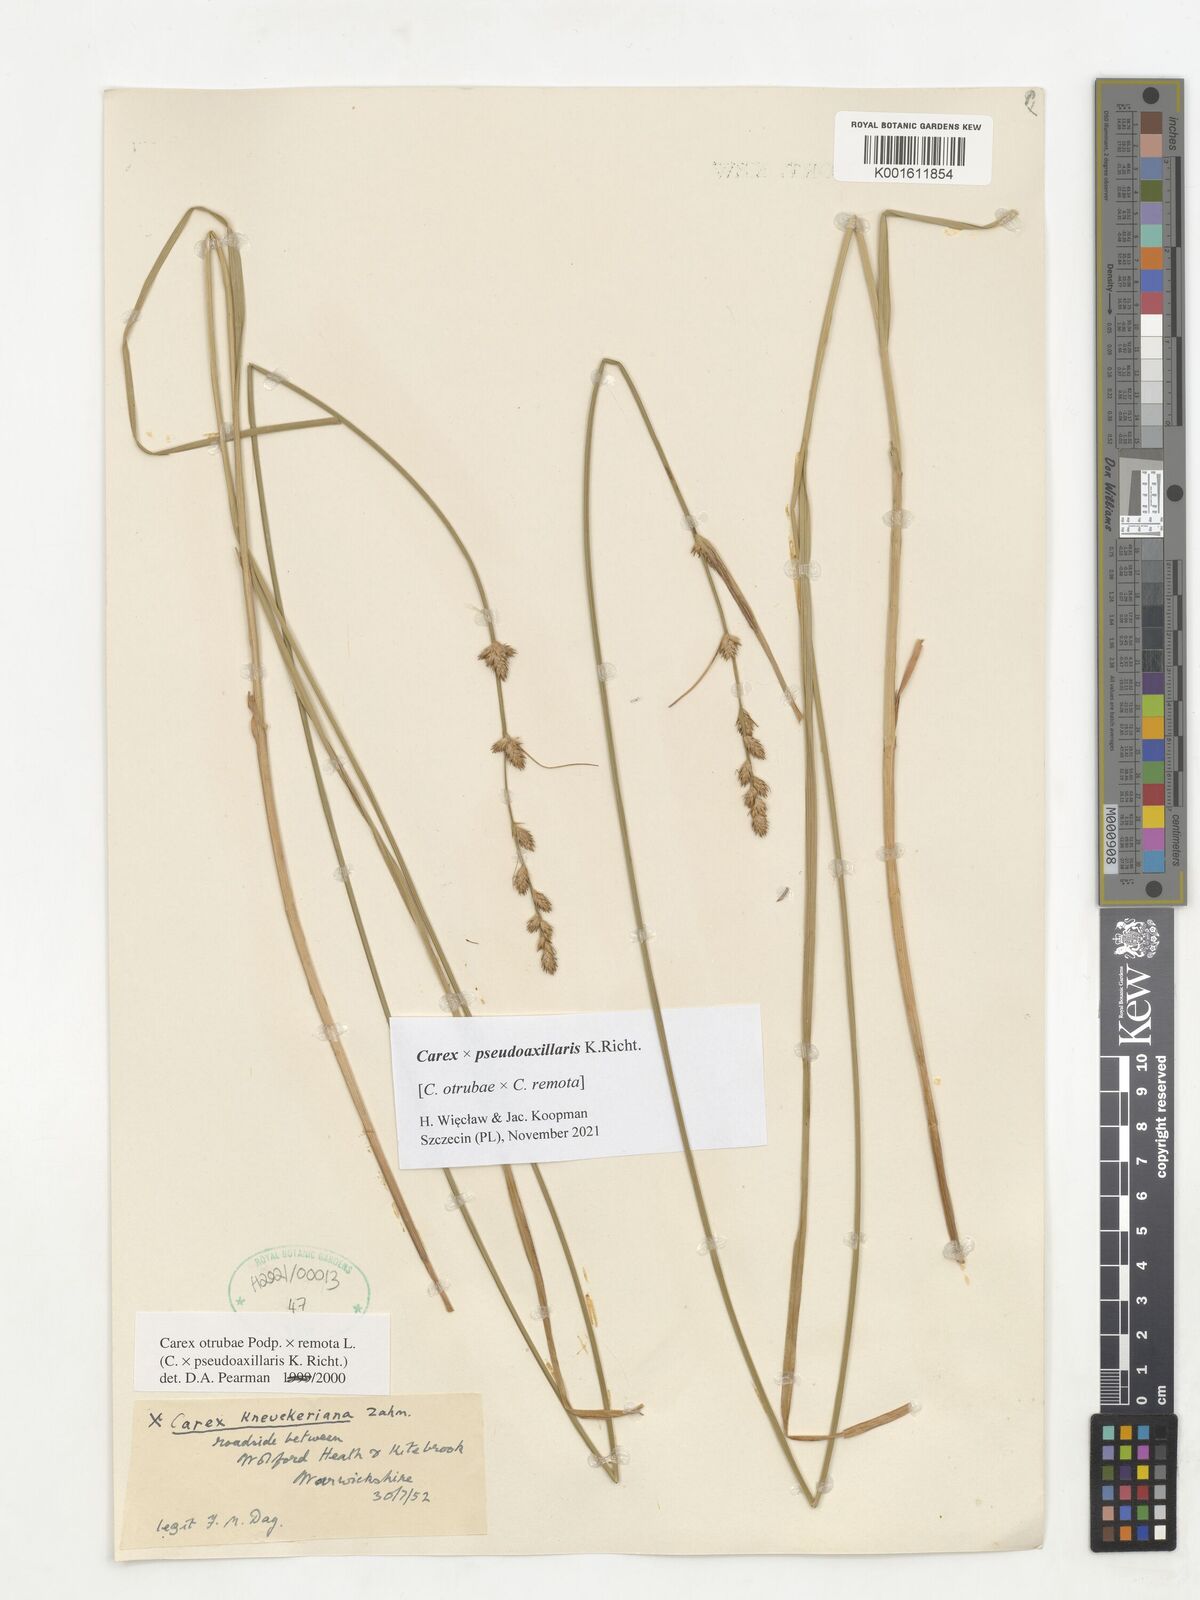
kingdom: Plantae
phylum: Tracheophyta
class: Liliopsida
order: Poales
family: Cyperaceae
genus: Carex
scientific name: Carex pseudoaxillaris
